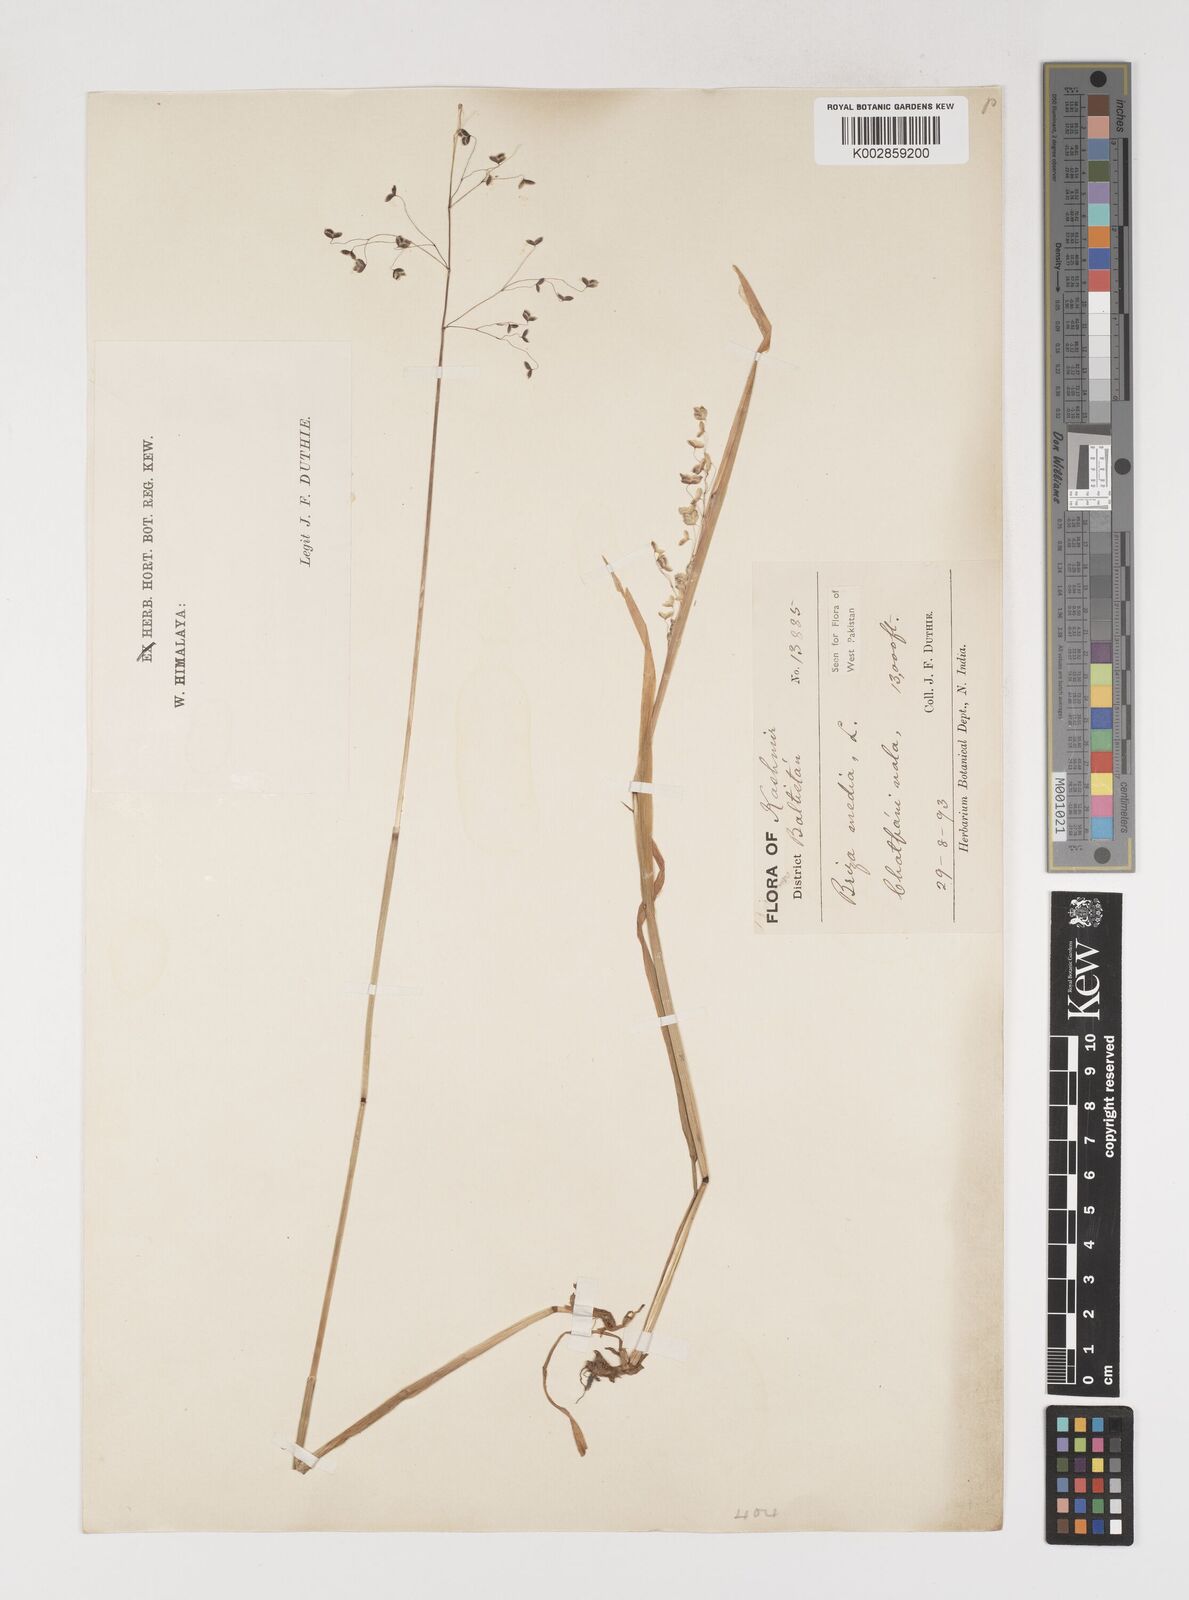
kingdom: Plantae
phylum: Tracheophyta
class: Liliopsida
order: Poales
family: Poaceae
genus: Briza
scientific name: Briza media
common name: Quaking grass
